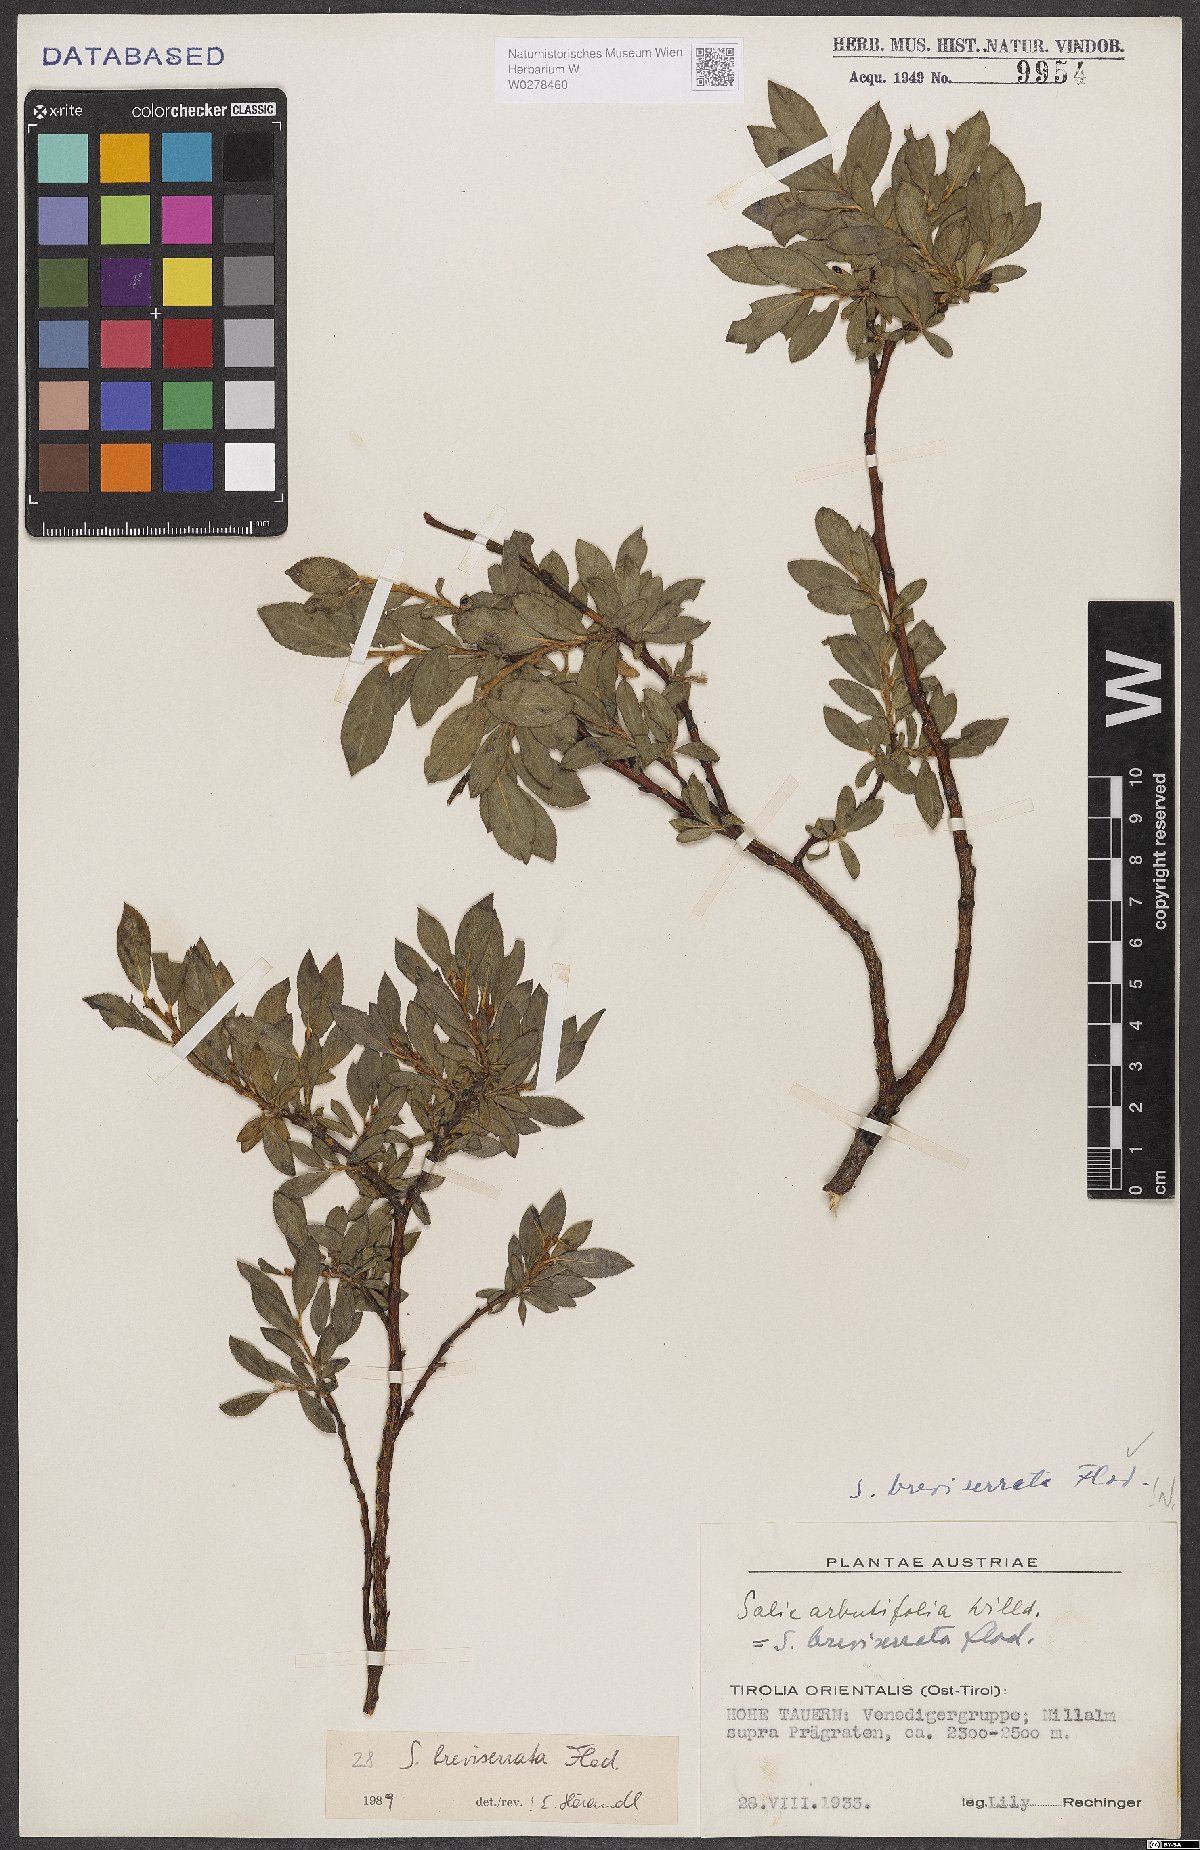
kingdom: Plantae
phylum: Tracheophyta
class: Magnoliopsida
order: Malpighiales
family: Salicaceae
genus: Salix
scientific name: Salix breviserrata
